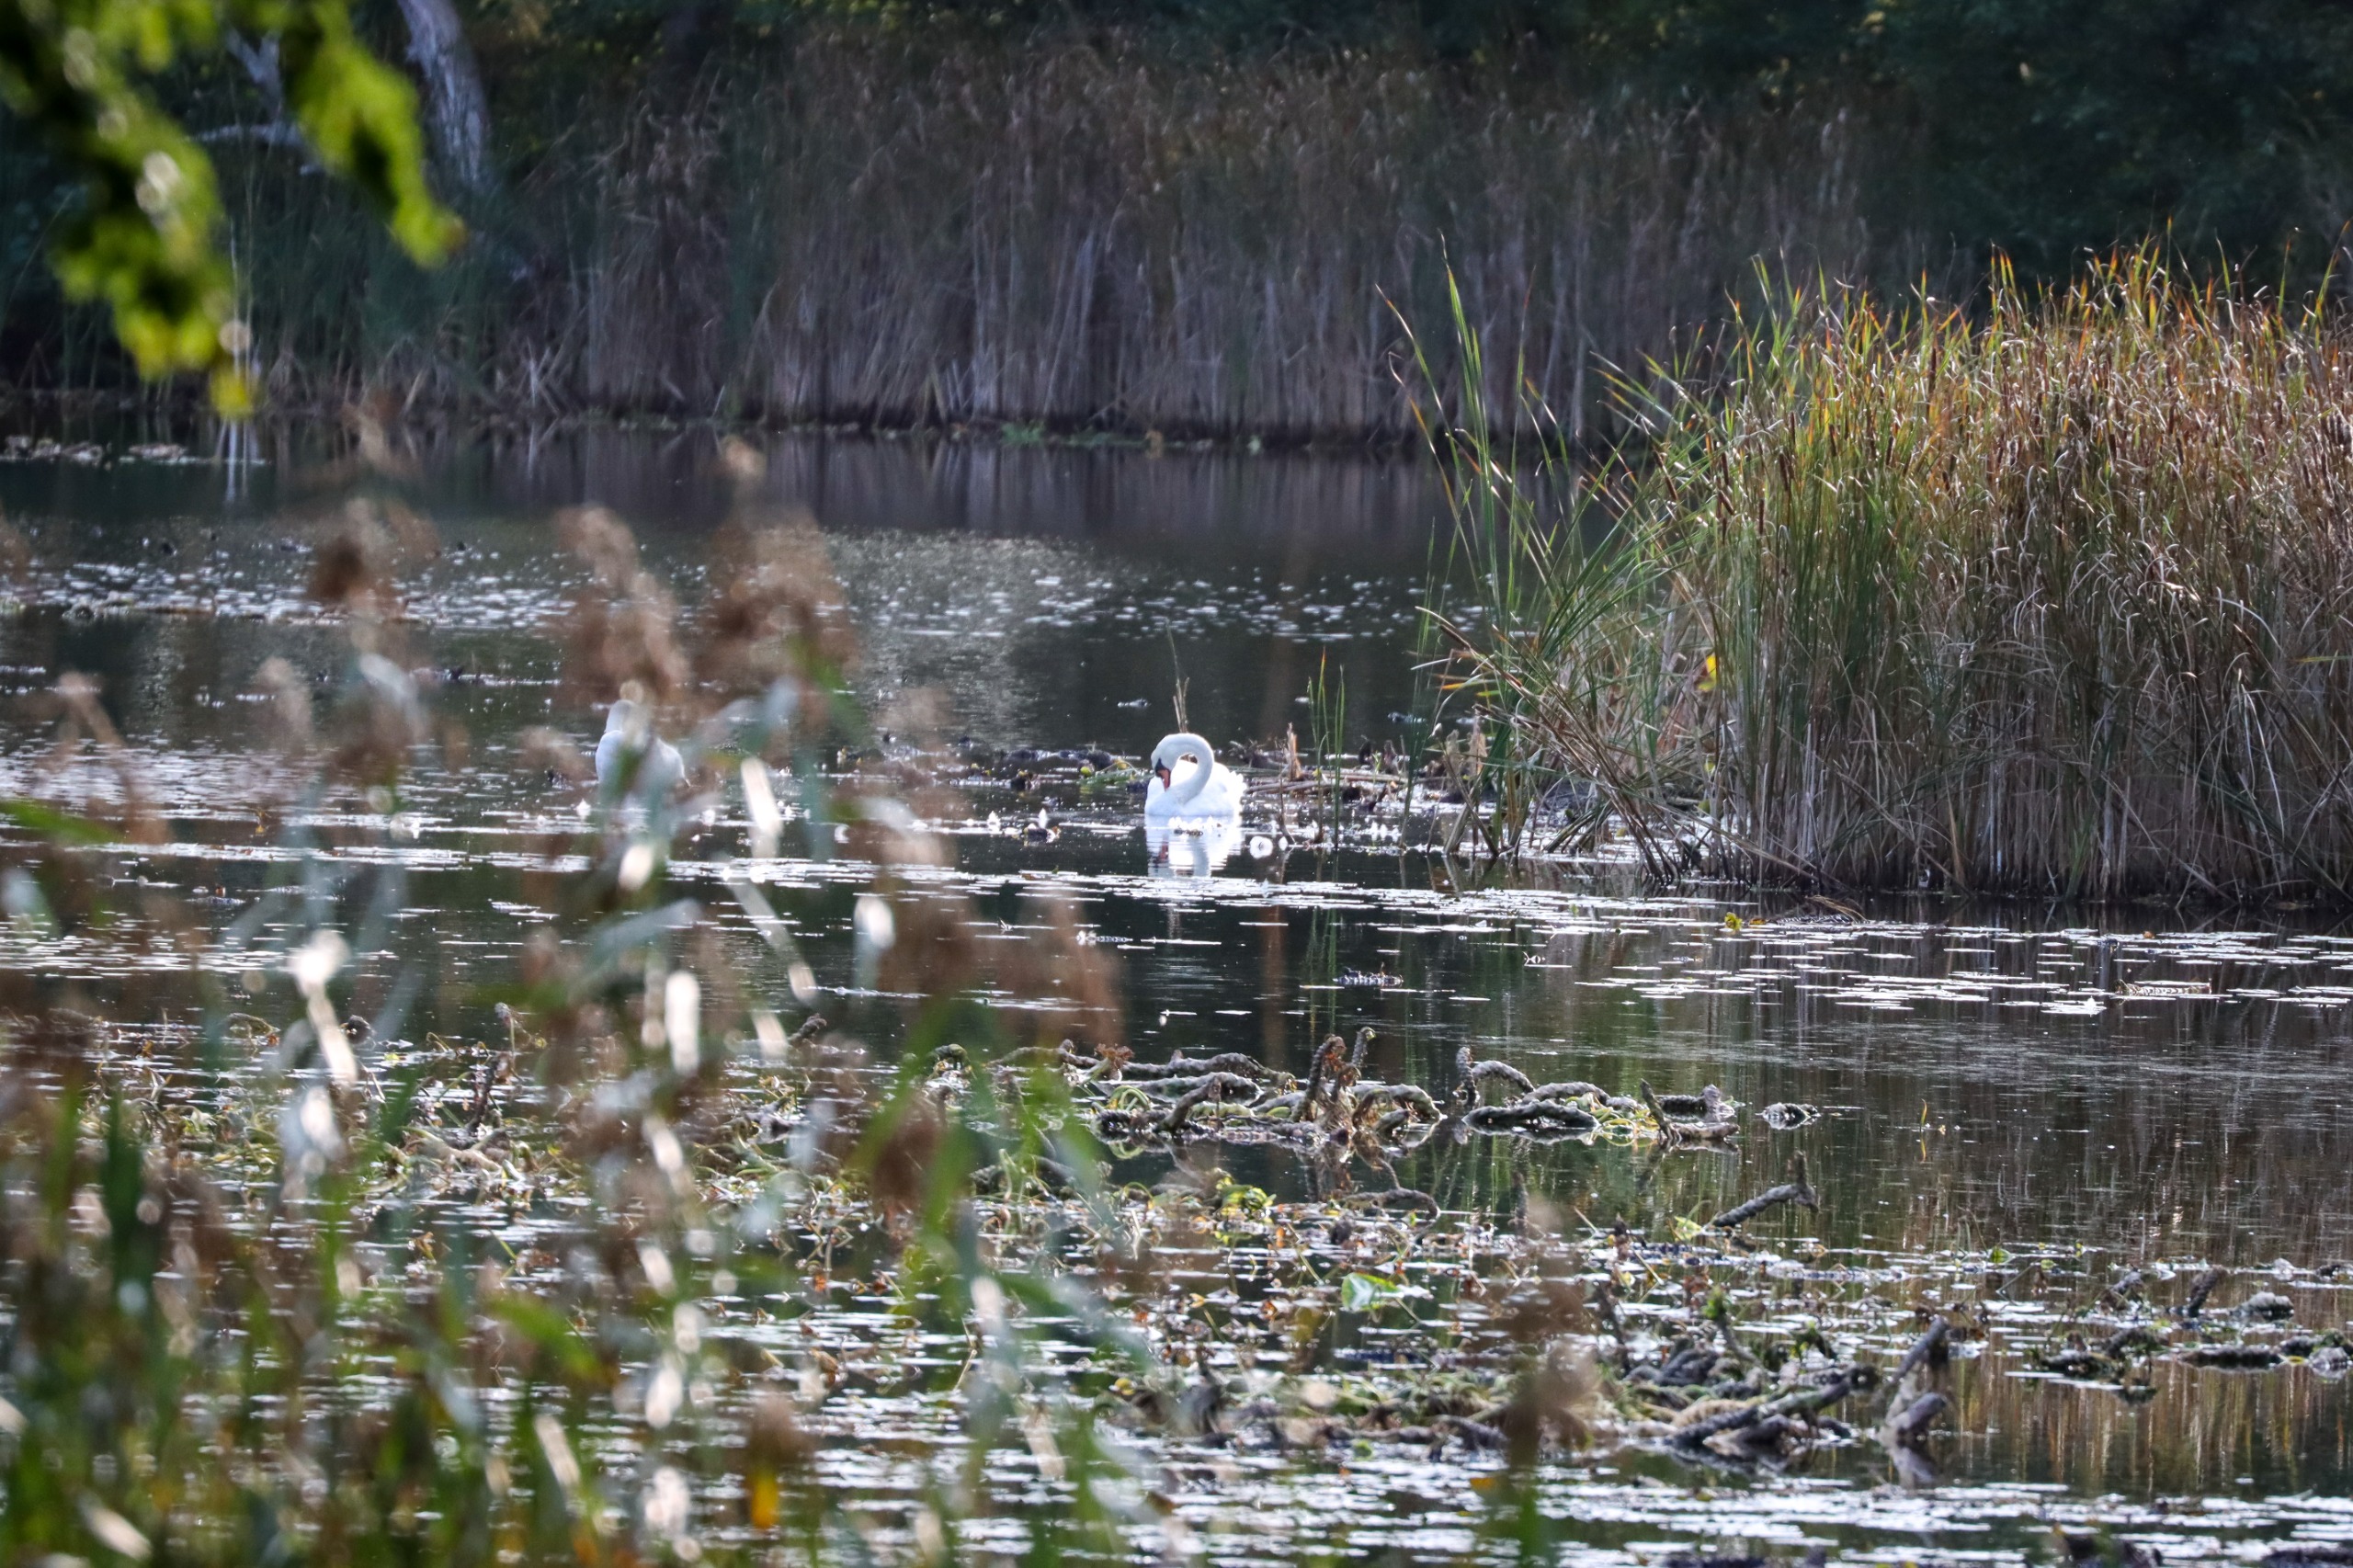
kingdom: Animalia
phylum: Chordata
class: Aves
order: Anseriformes
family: Anatidae
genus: Cygnus
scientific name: Cygnus olor
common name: Knopsvane
